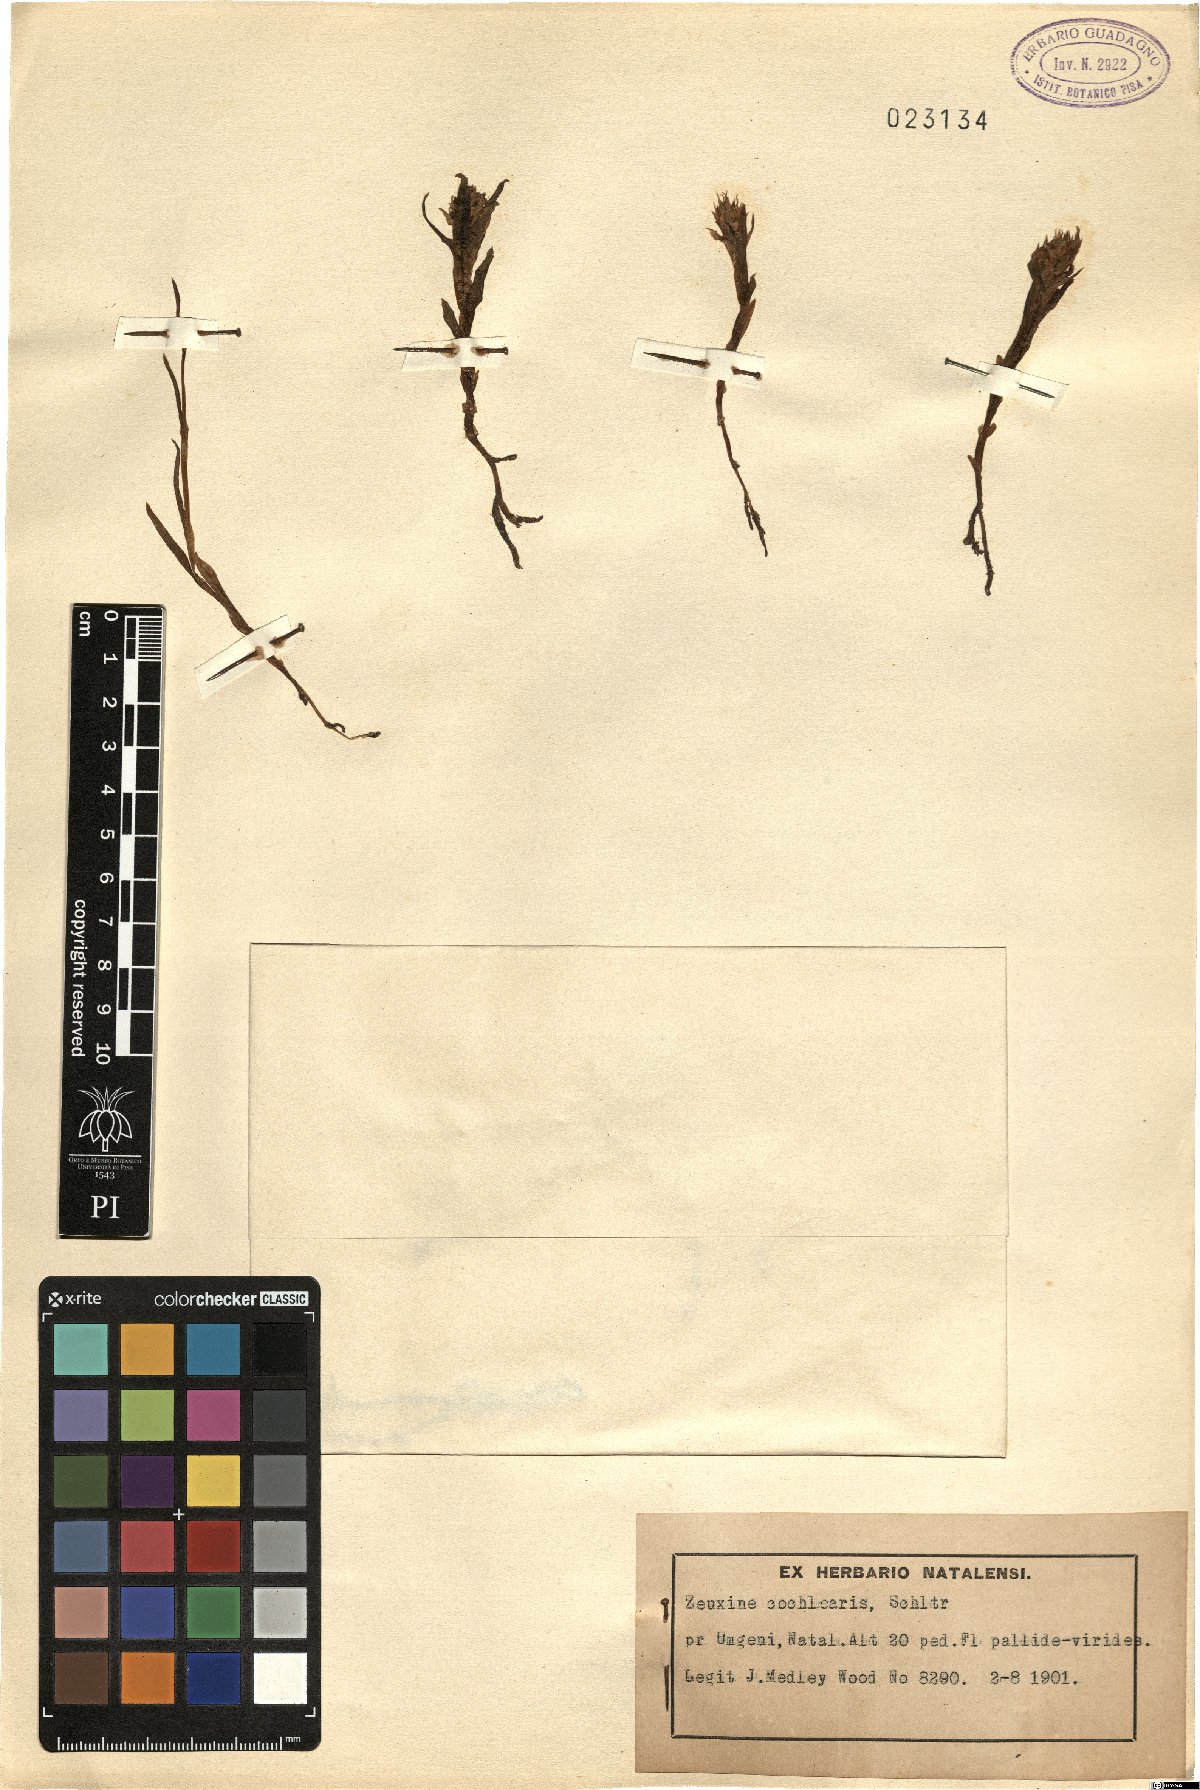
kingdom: Plantae
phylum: Tracheophyta
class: Liliopsida
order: Asparagales
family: Orchidaceae
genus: Zeuxine
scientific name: Zeuxine africana
